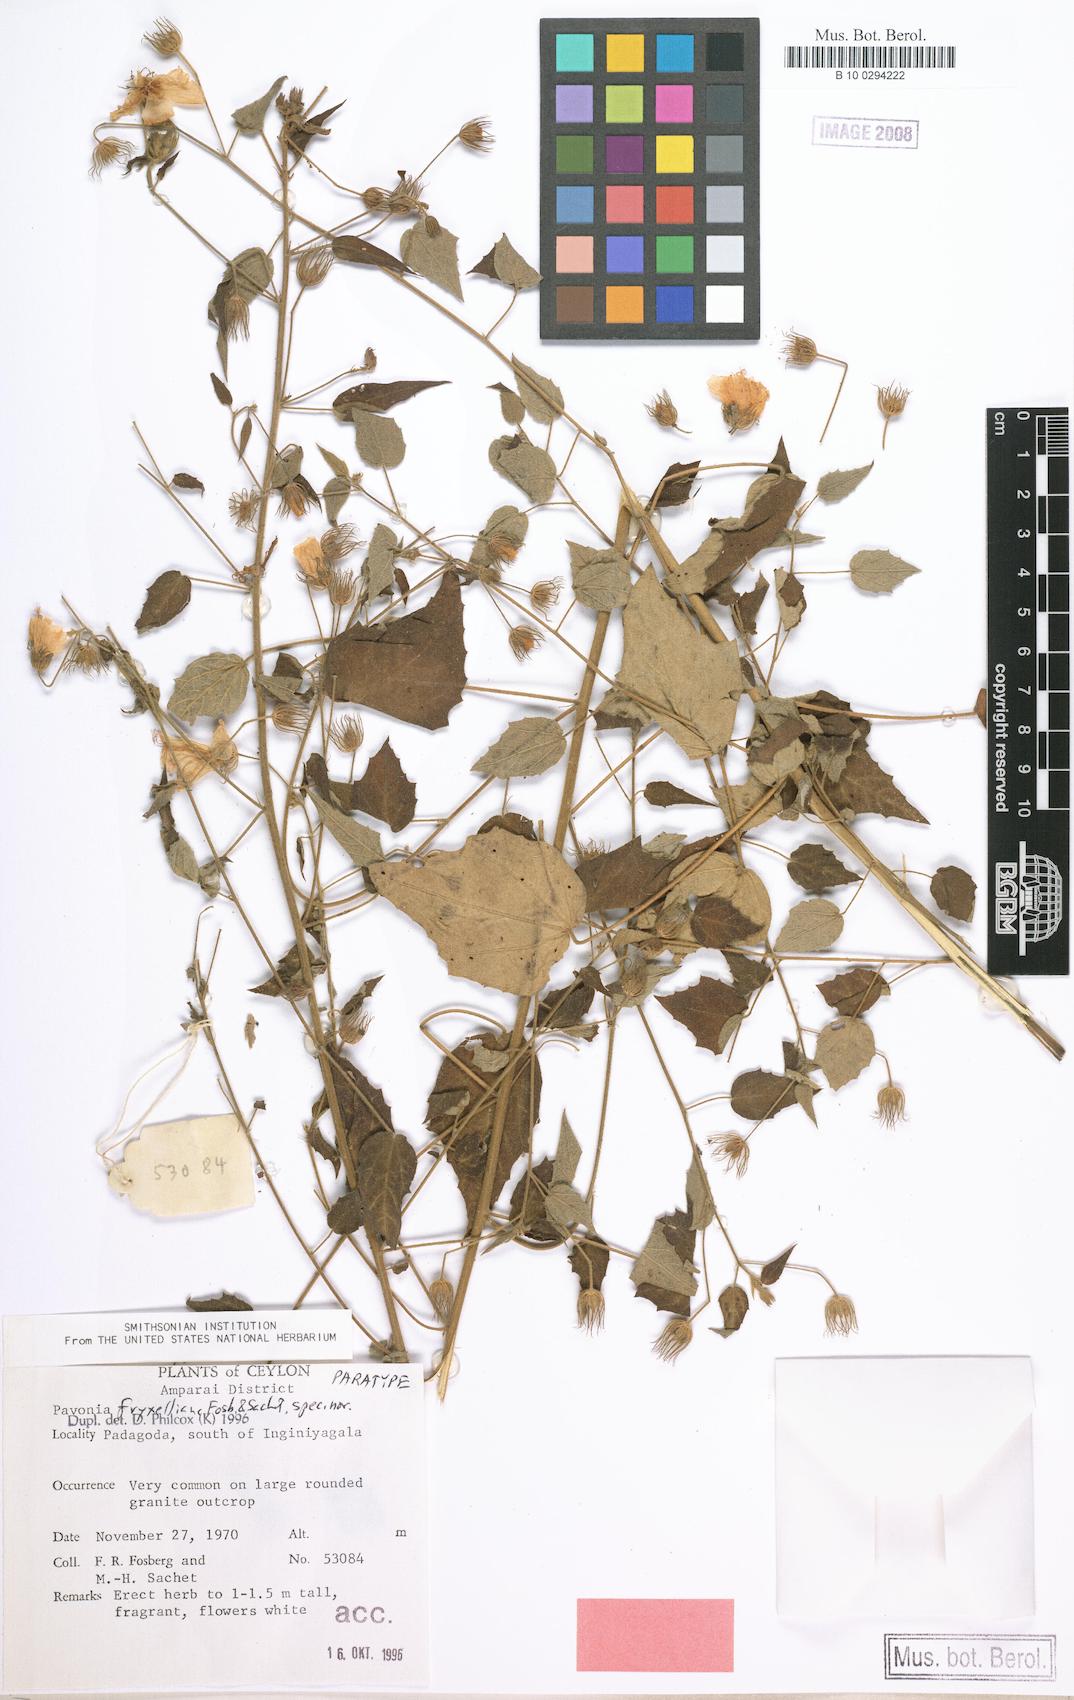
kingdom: Plantae
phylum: Tracheophyta
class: Magnoliopsida
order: Malvales
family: Malvaceae
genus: Pavonia
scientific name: Pavonia fryxelliana
